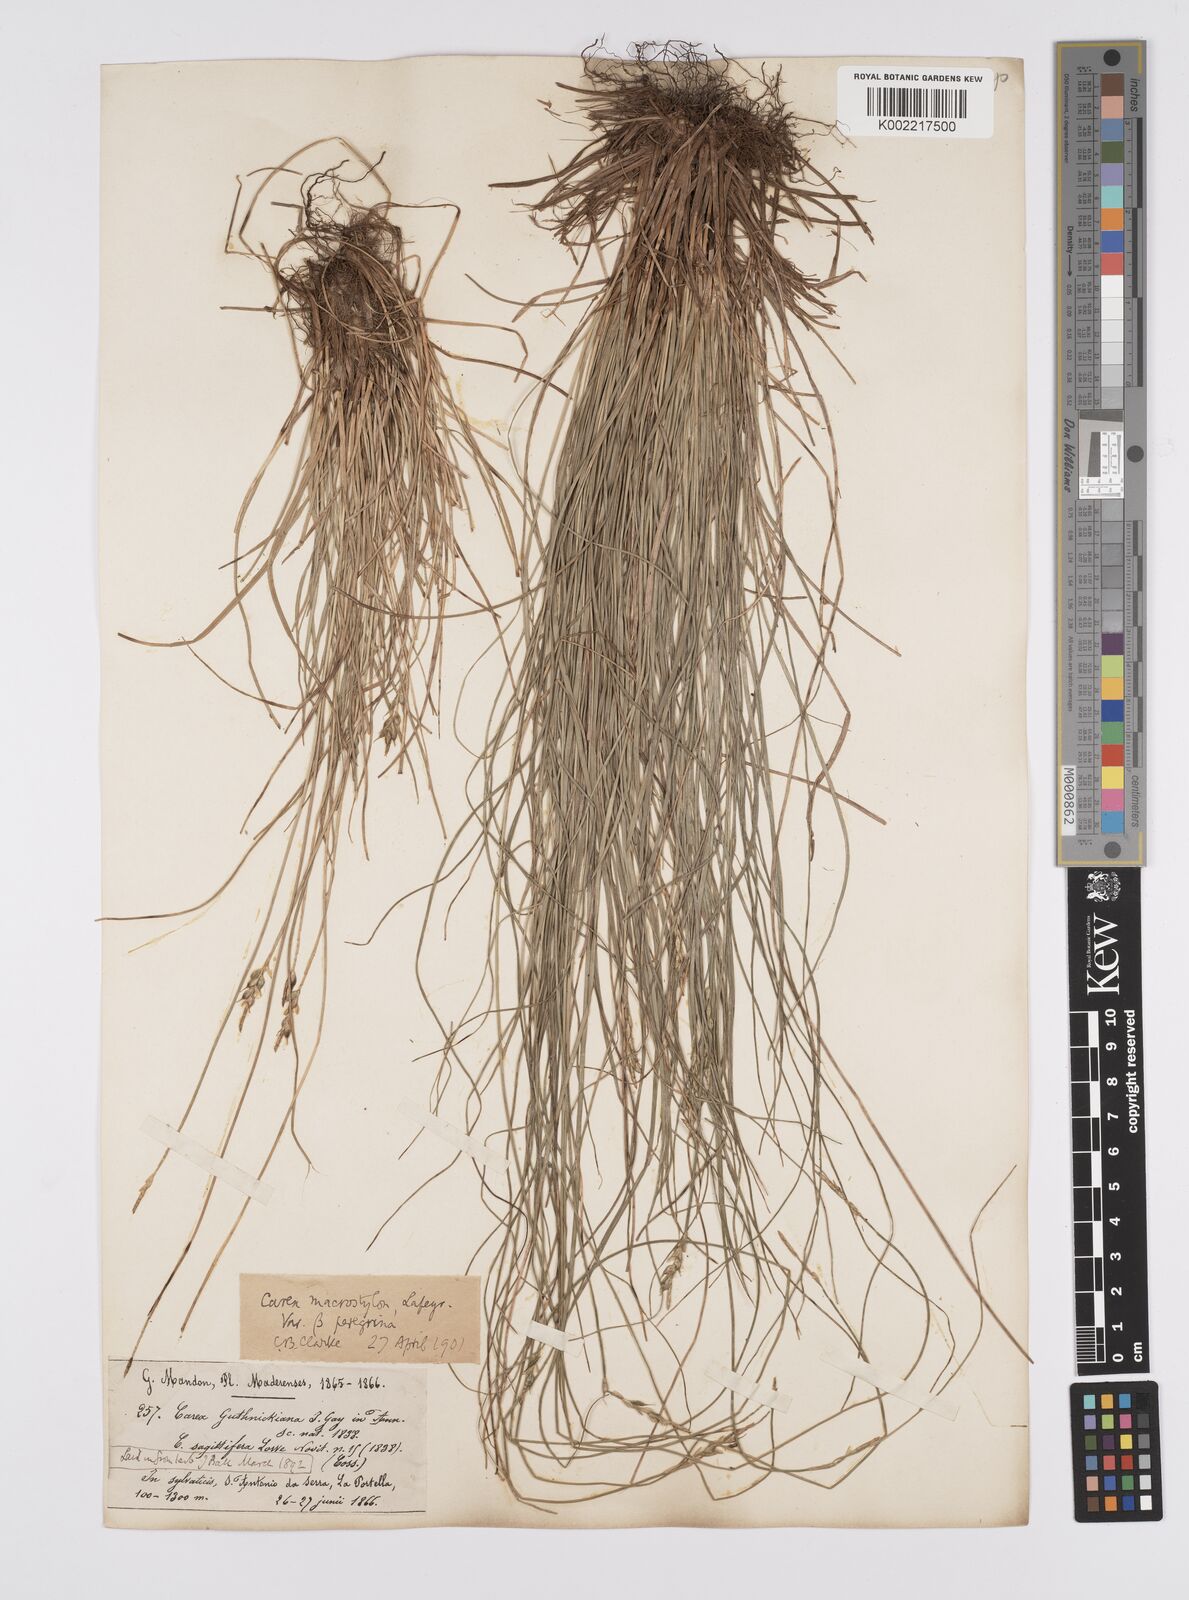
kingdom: Plantae
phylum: Tracheophyta
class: Liliopsida
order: Poales
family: Cyperaceae
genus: Carex
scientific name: Carex peregrina
